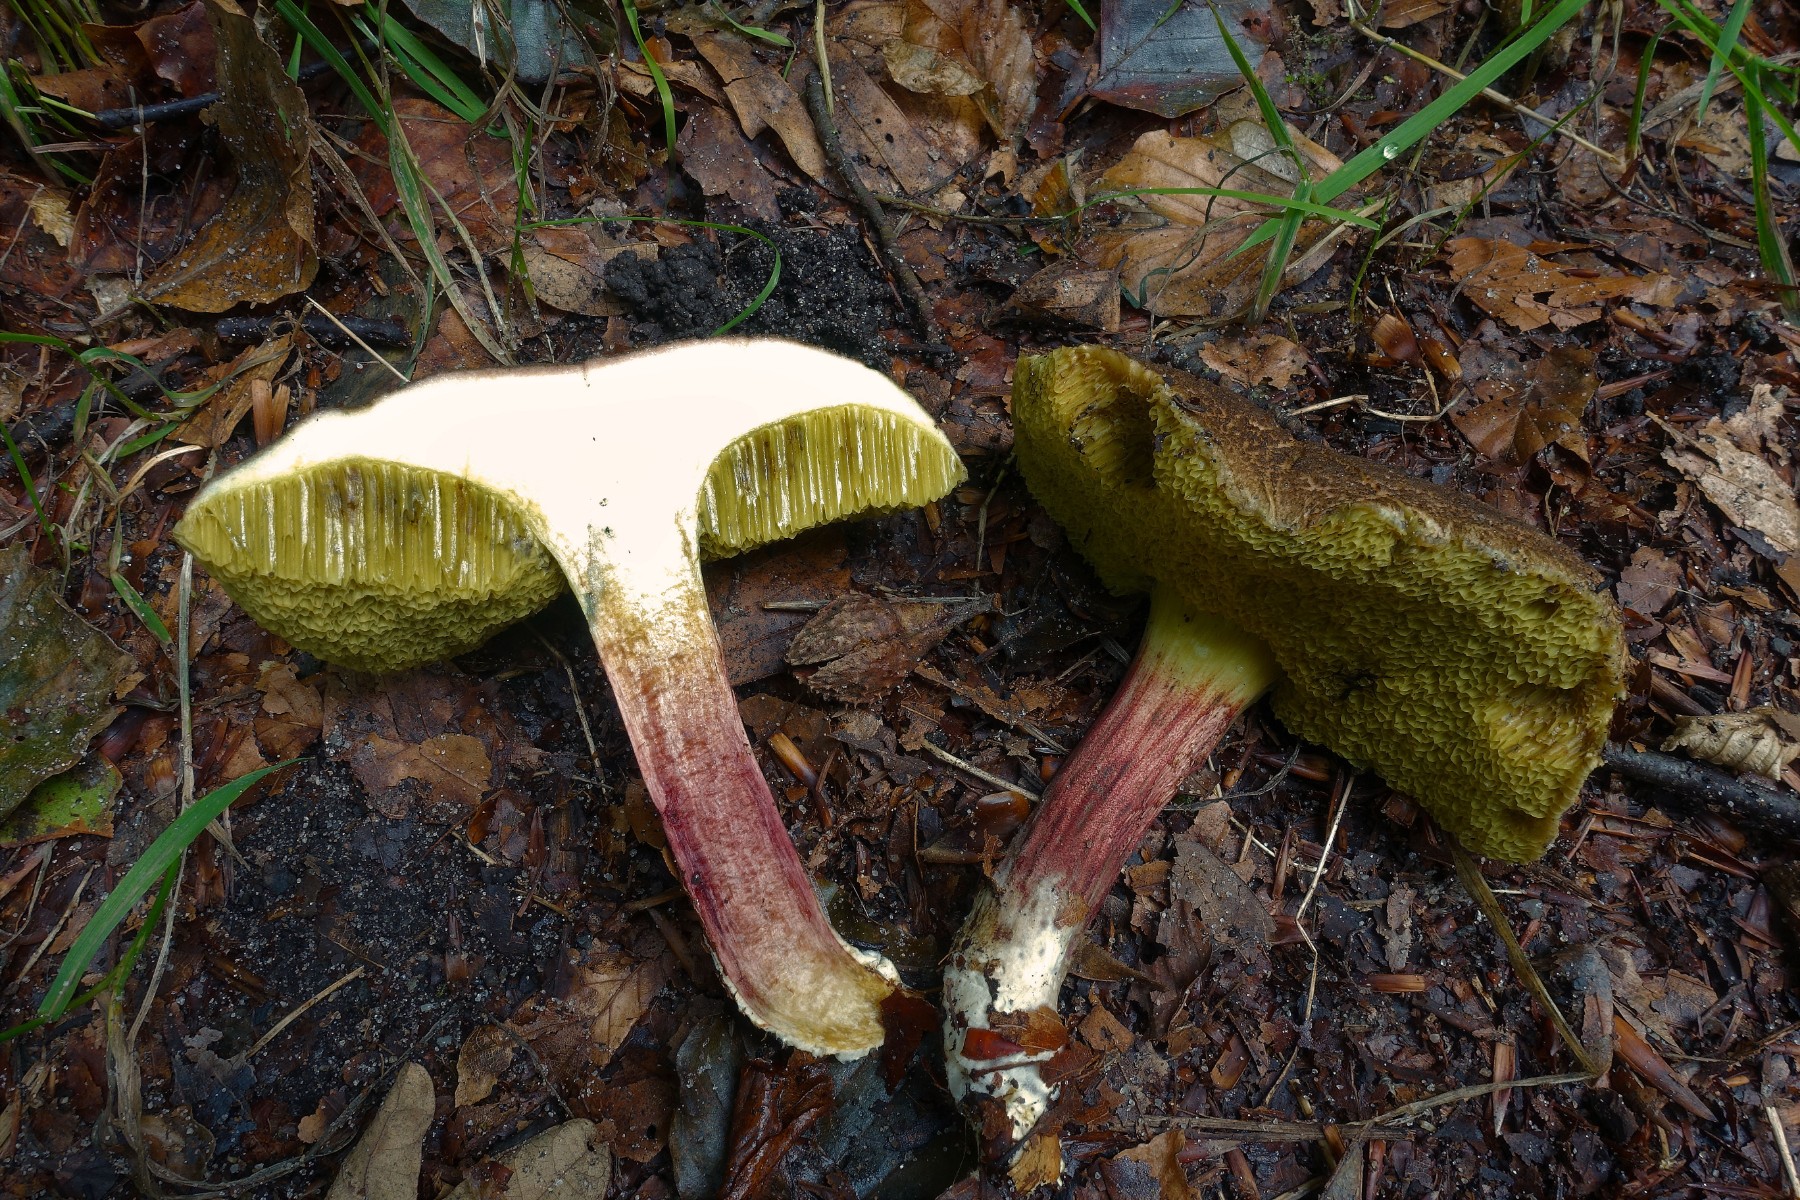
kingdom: Fungi
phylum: Basidiomycota
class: Agaricomycetes
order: Boletales
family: Boletaceae
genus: Xerocomellus
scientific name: Xerocomellus chrysenteron
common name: rødsprukken rørhat
